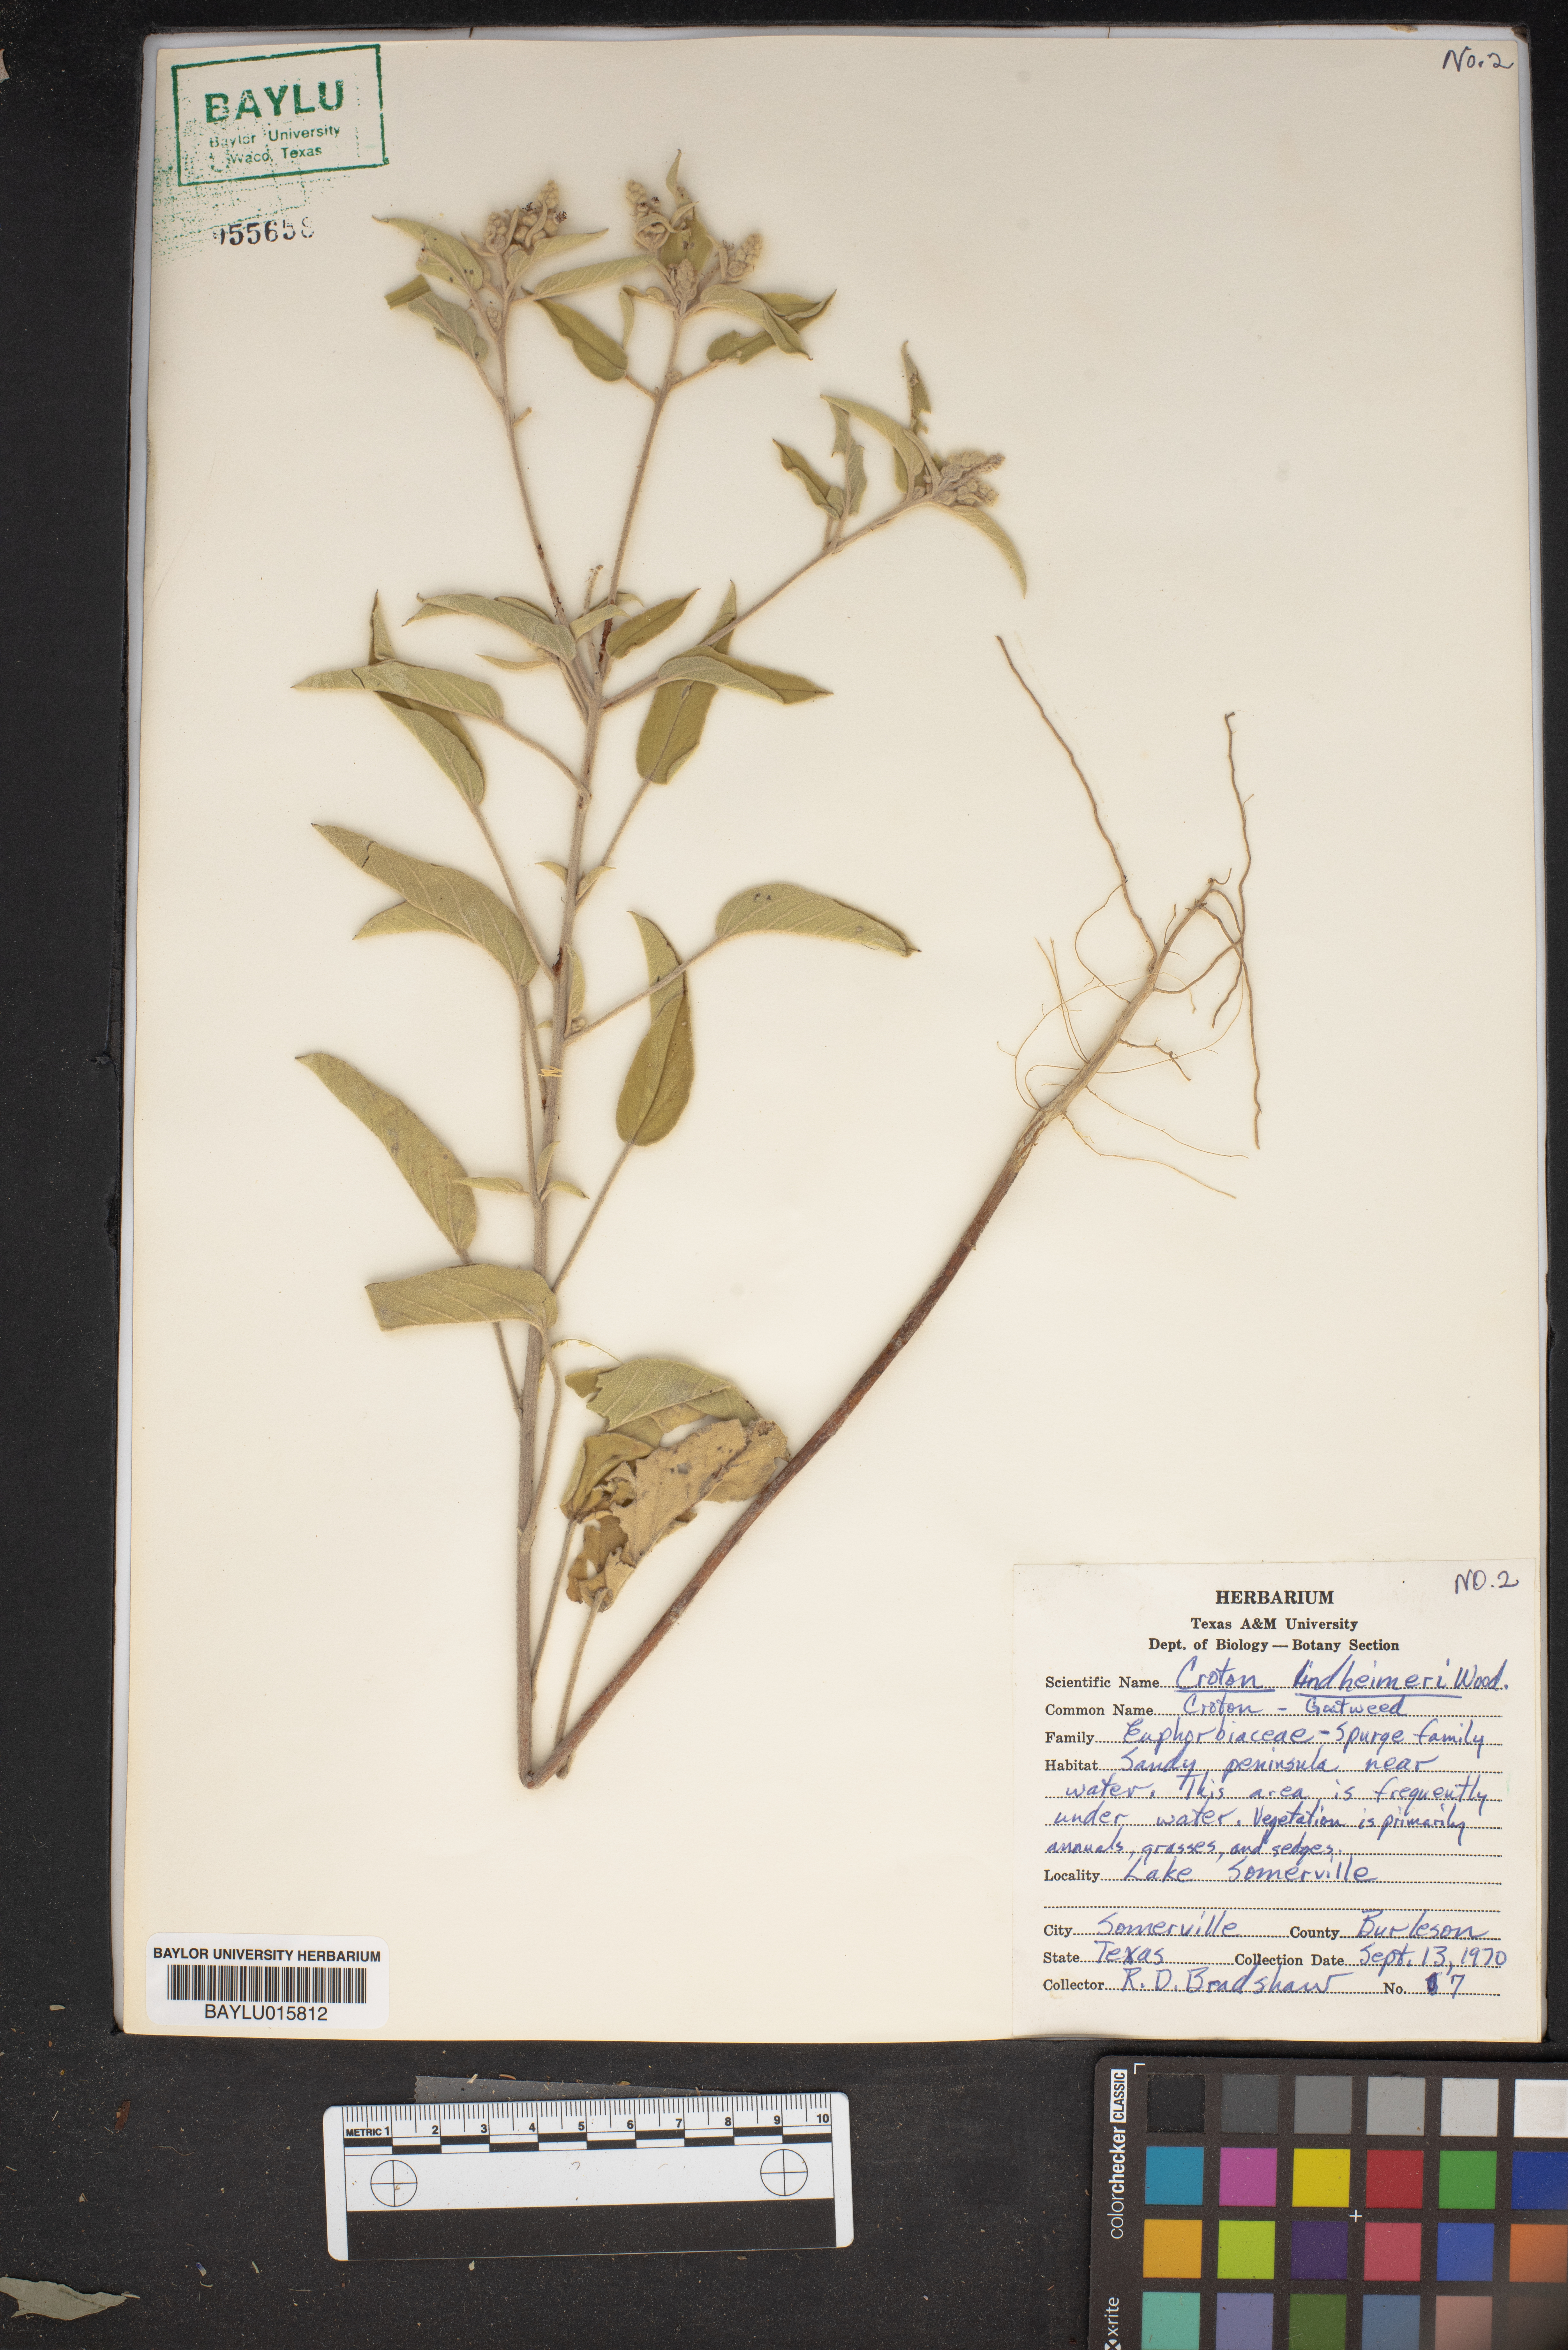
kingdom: Plantae
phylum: Tracheophyta
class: Magnoliopsida
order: Malpighiales
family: Euphorbiaceae
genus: Croton
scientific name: Croton lindheimeri
